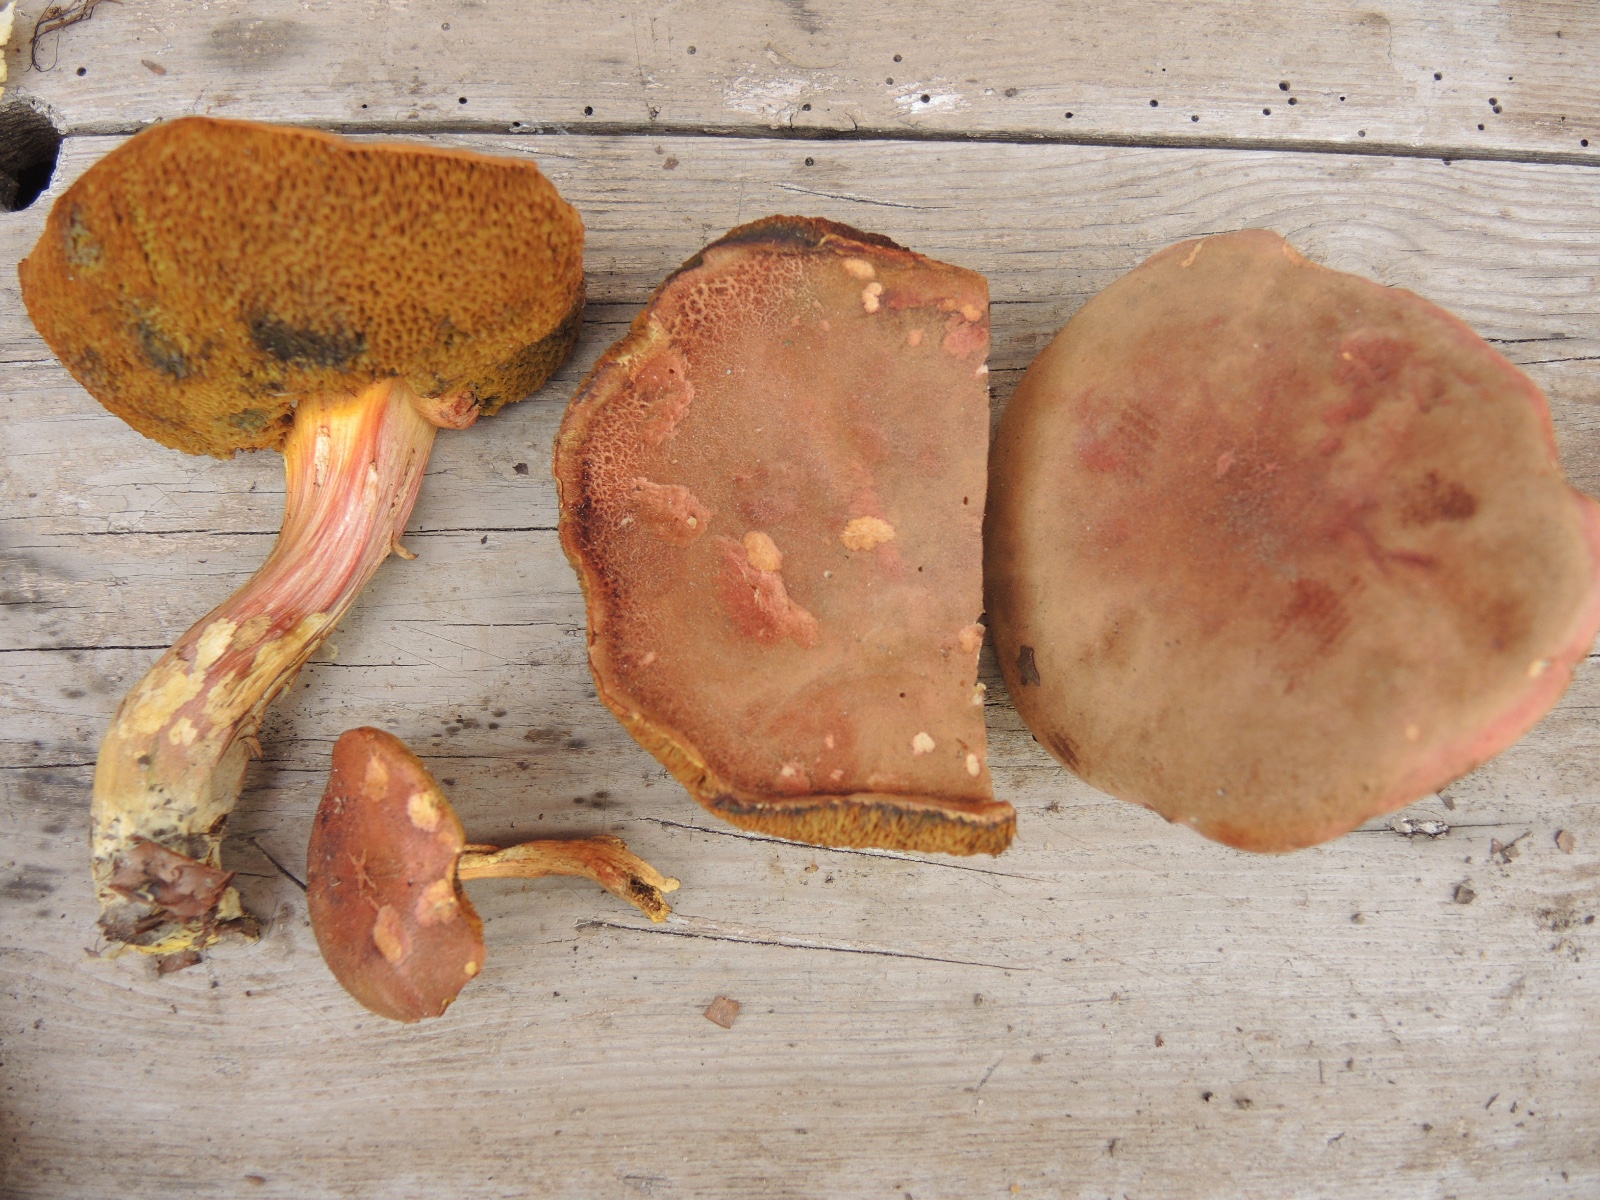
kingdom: Fungi
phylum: Basidiomycota
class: Agaricomycetes
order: Boletales
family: Boletaceae
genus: Xerocomellus
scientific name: Xerocomellus chrysenteron
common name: rødsprukken rørhat
